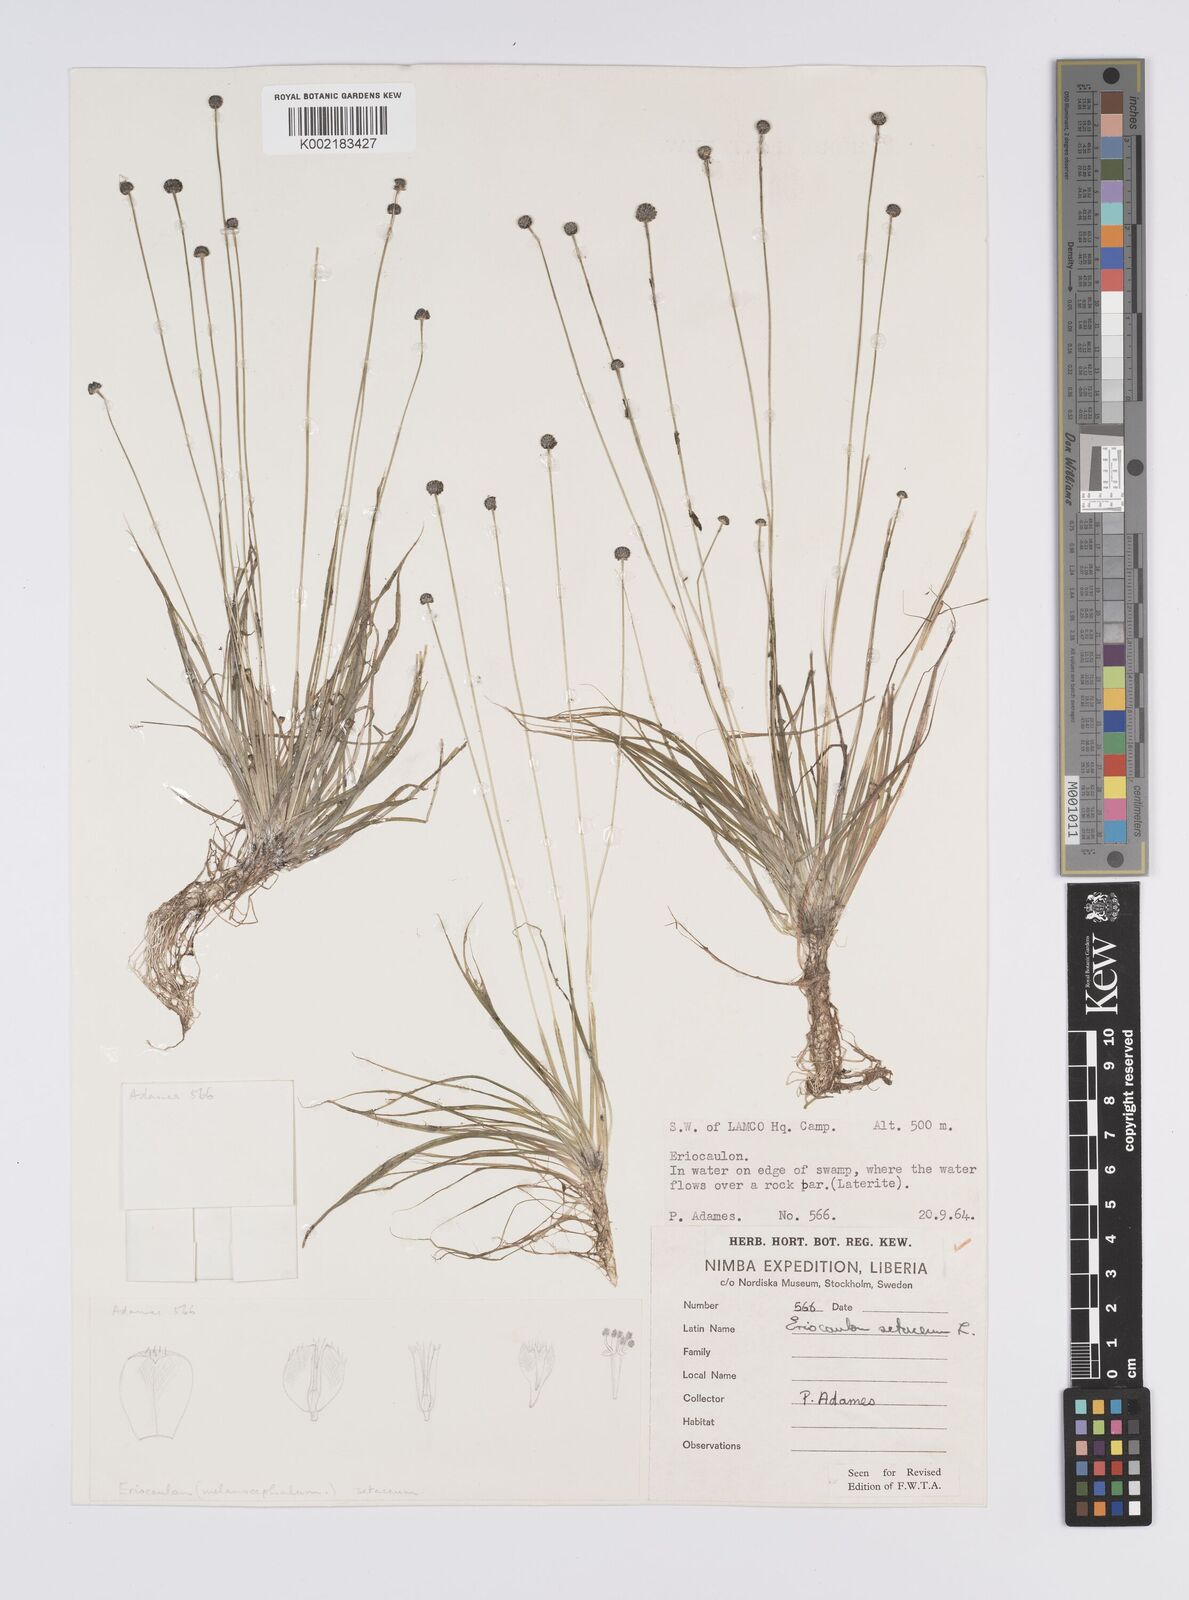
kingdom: Plantae
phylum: Tracheophyta
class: Liliopsida
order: Poales
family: Eriocaulaceae
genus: Eriocaulon
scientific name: Eriocaulon setaceum
